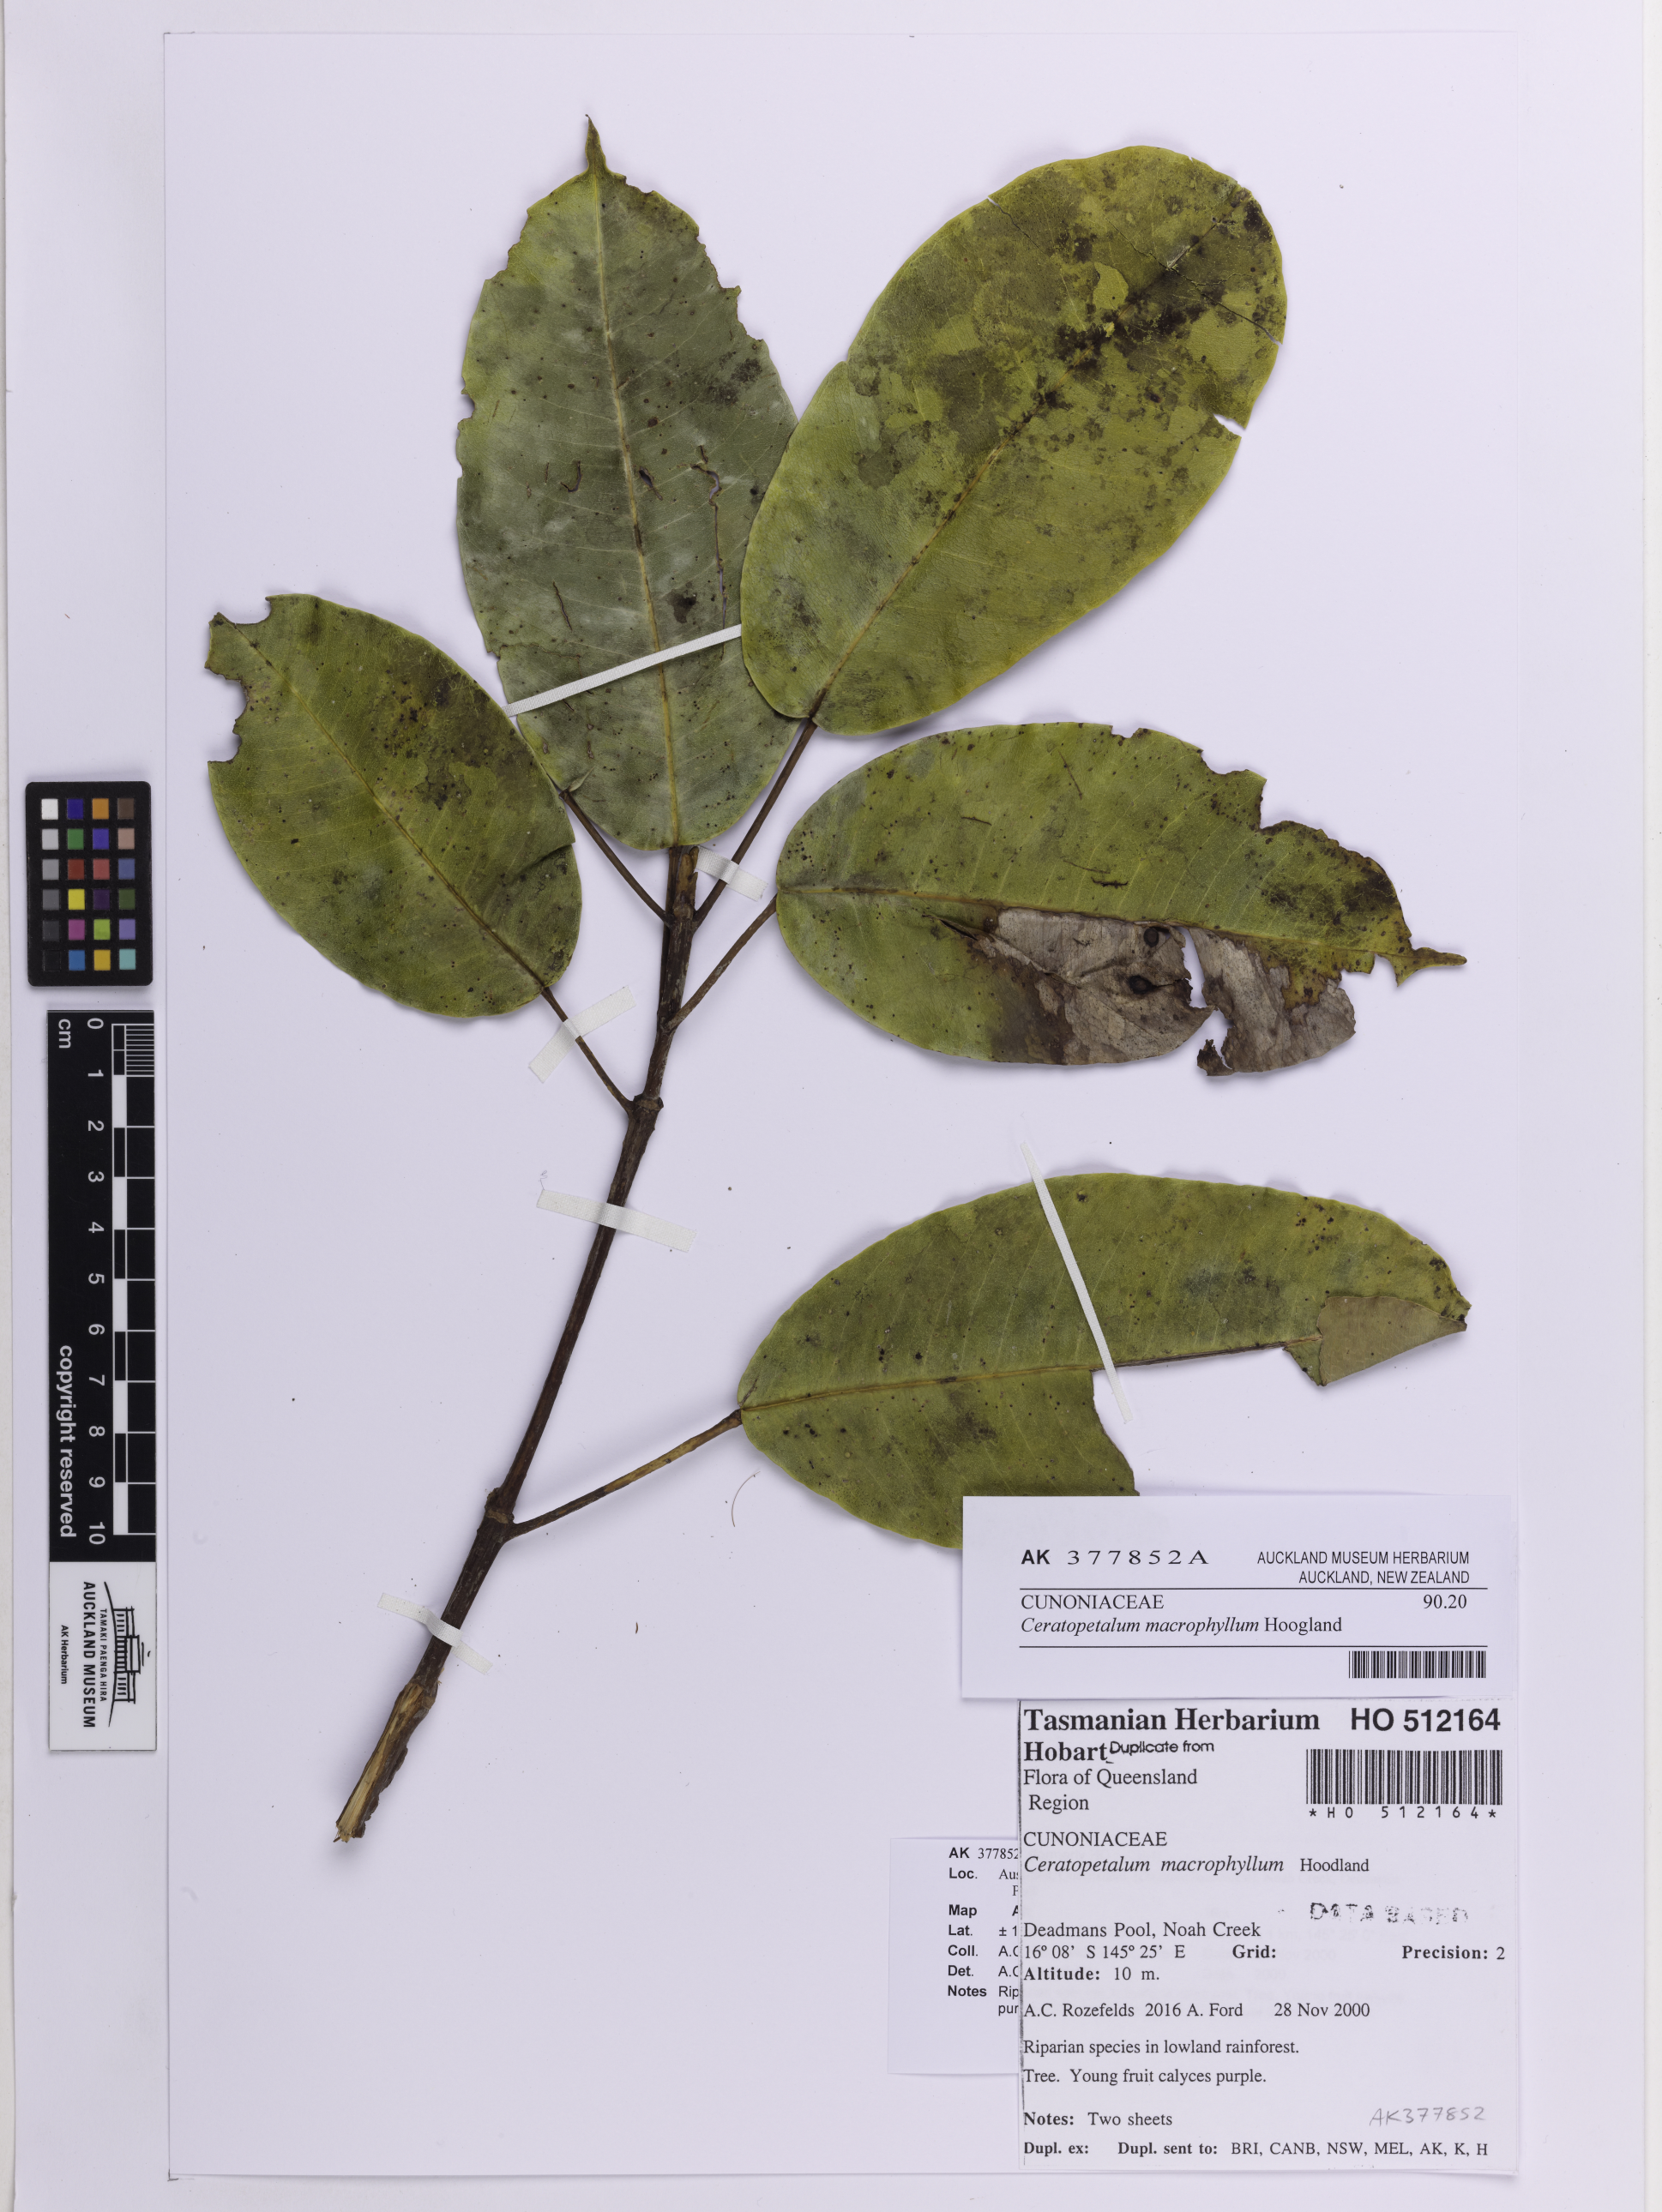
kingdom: Plantae
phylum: Tracheophyta
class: Magnoliopsida
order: Oxalidales
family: Cunoniaceae
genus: Ceratopetalum
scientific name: Ceratopetalum macrophyllum
